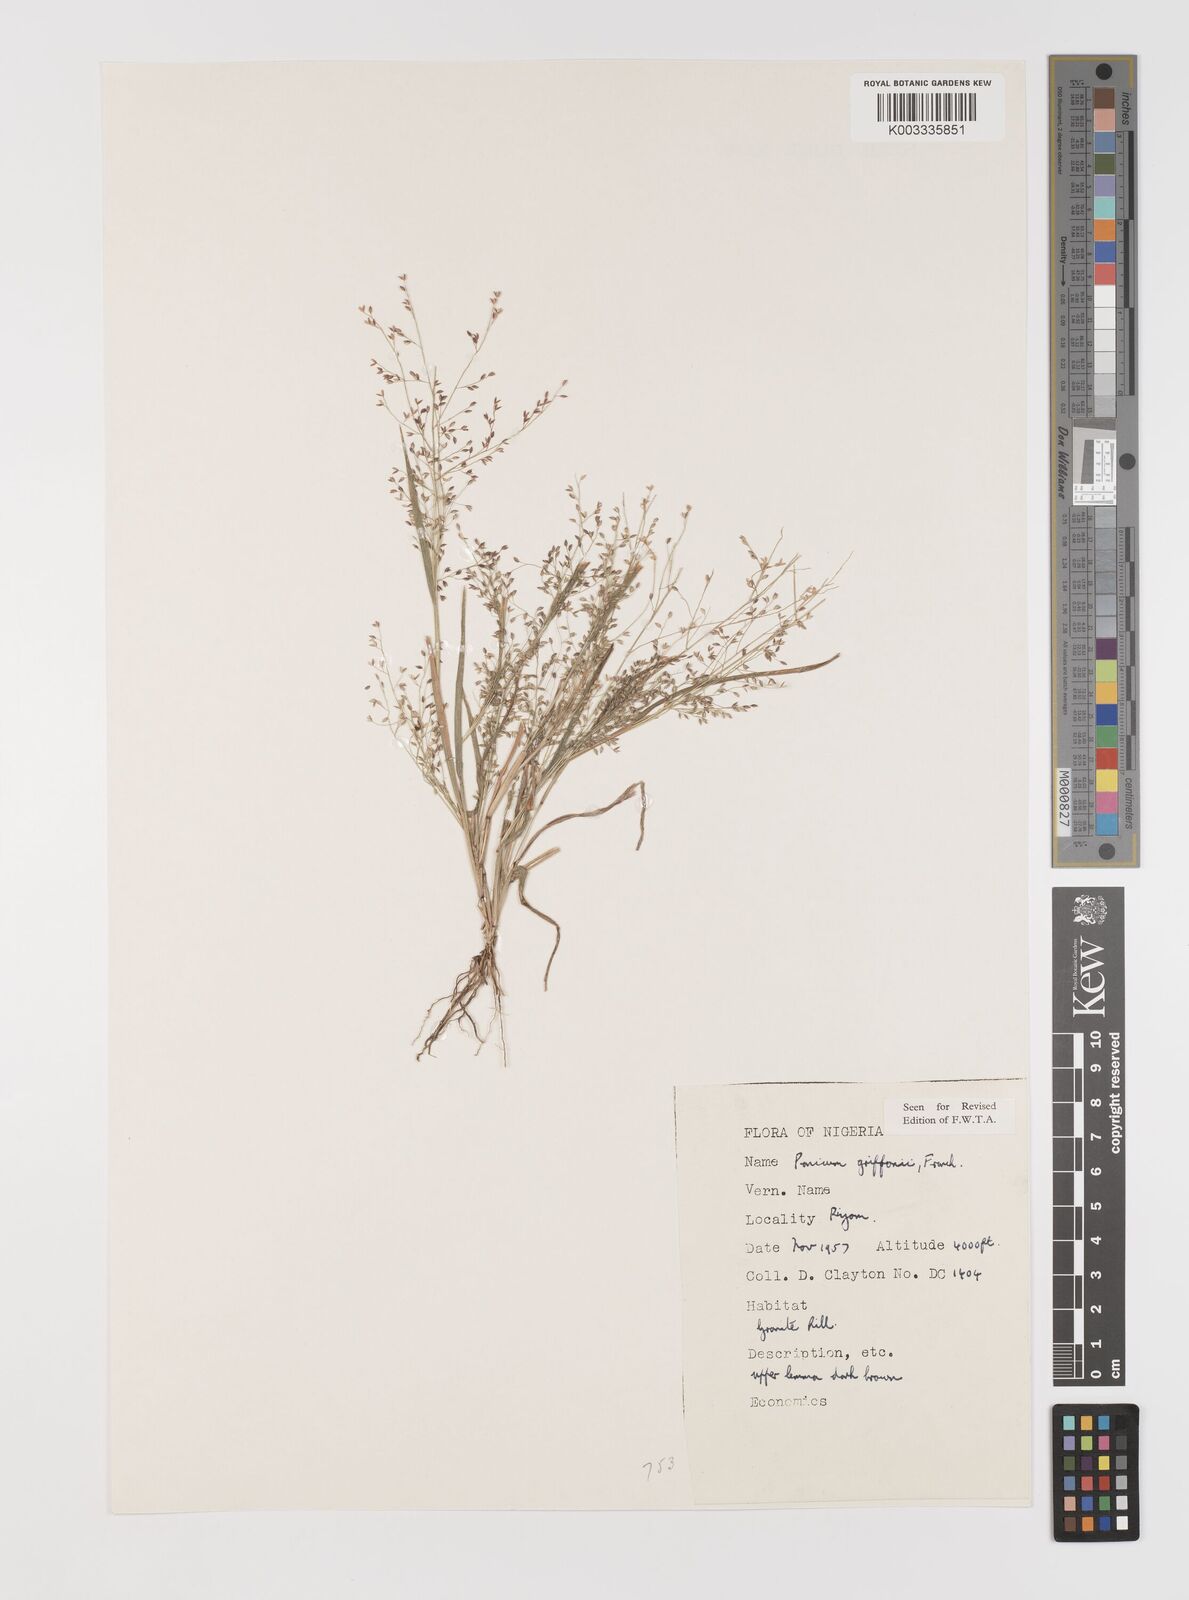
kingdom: Plantae
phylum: Tracheophyta
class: Liliopsida
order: Poales
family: Poaceae
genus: Panicum
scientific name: Panicum griffonii
